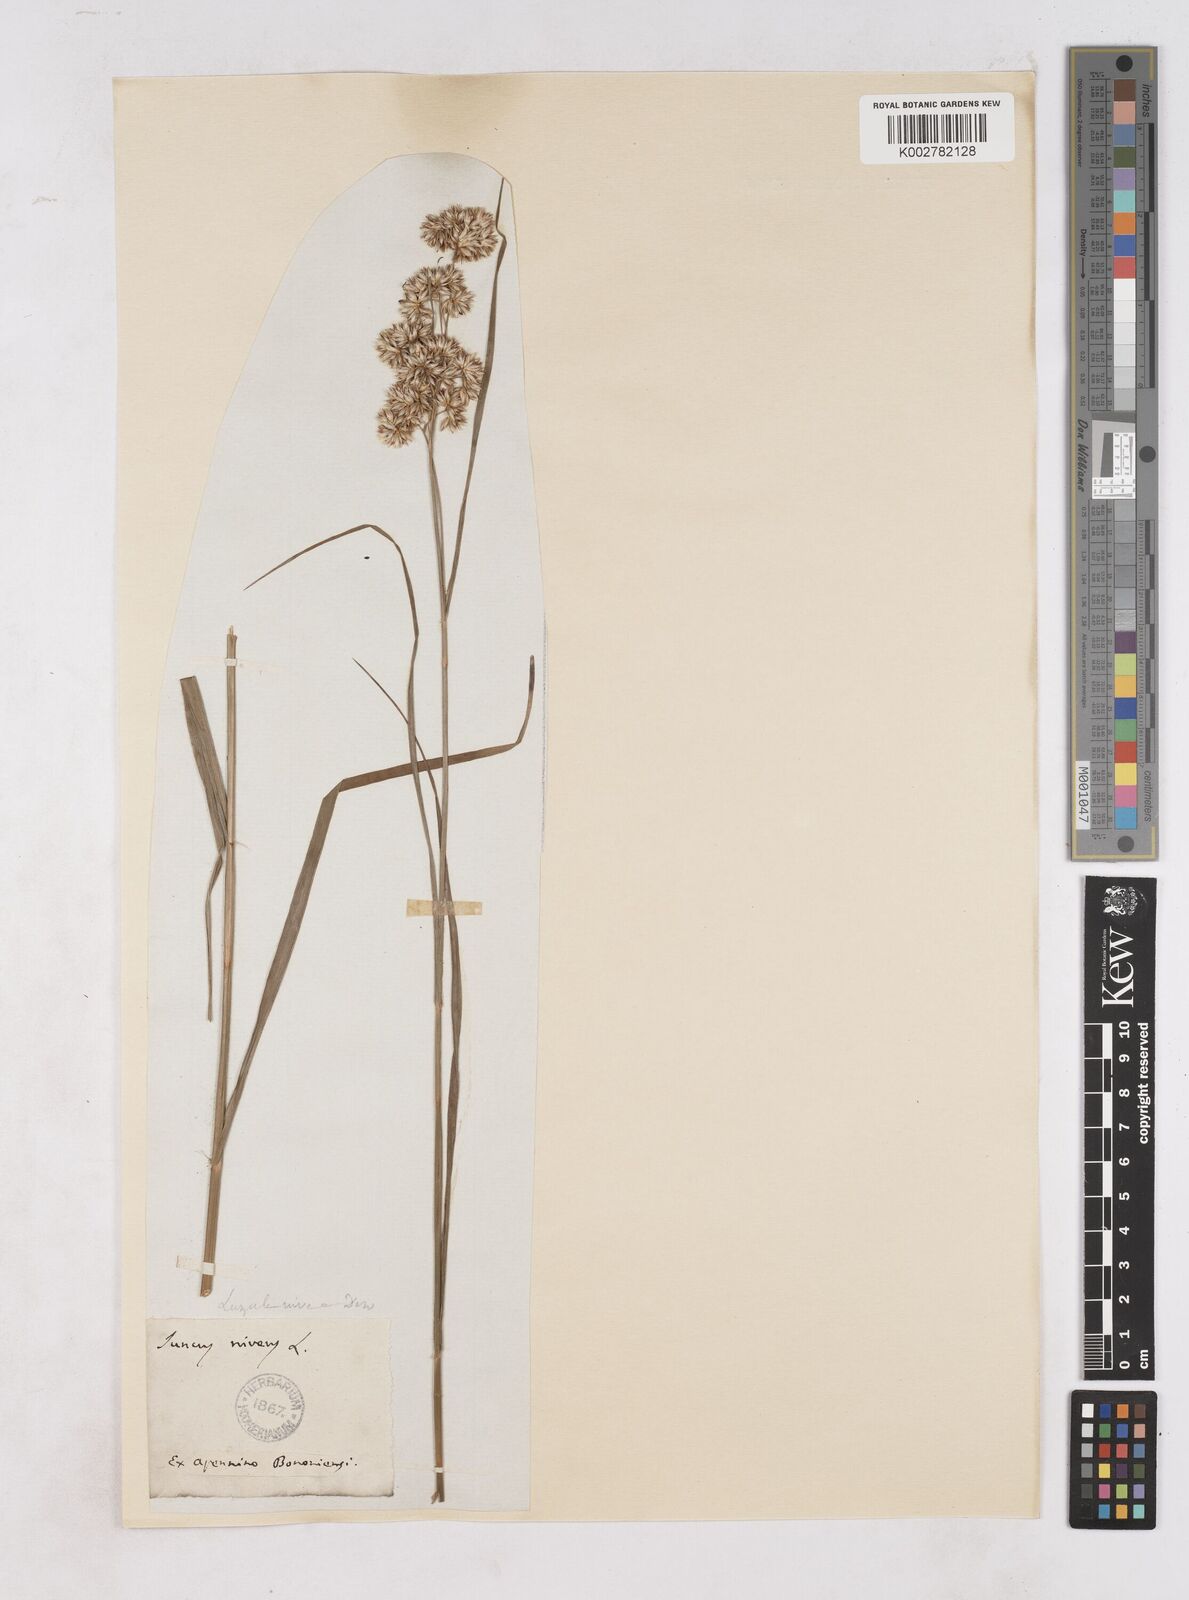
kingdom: Plantae
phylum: Tracheophyta
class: Liliopsida
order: Poales
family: Juncaceae
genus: Luzula
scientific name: Luzula nivea
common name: Snow-white wood-rush
